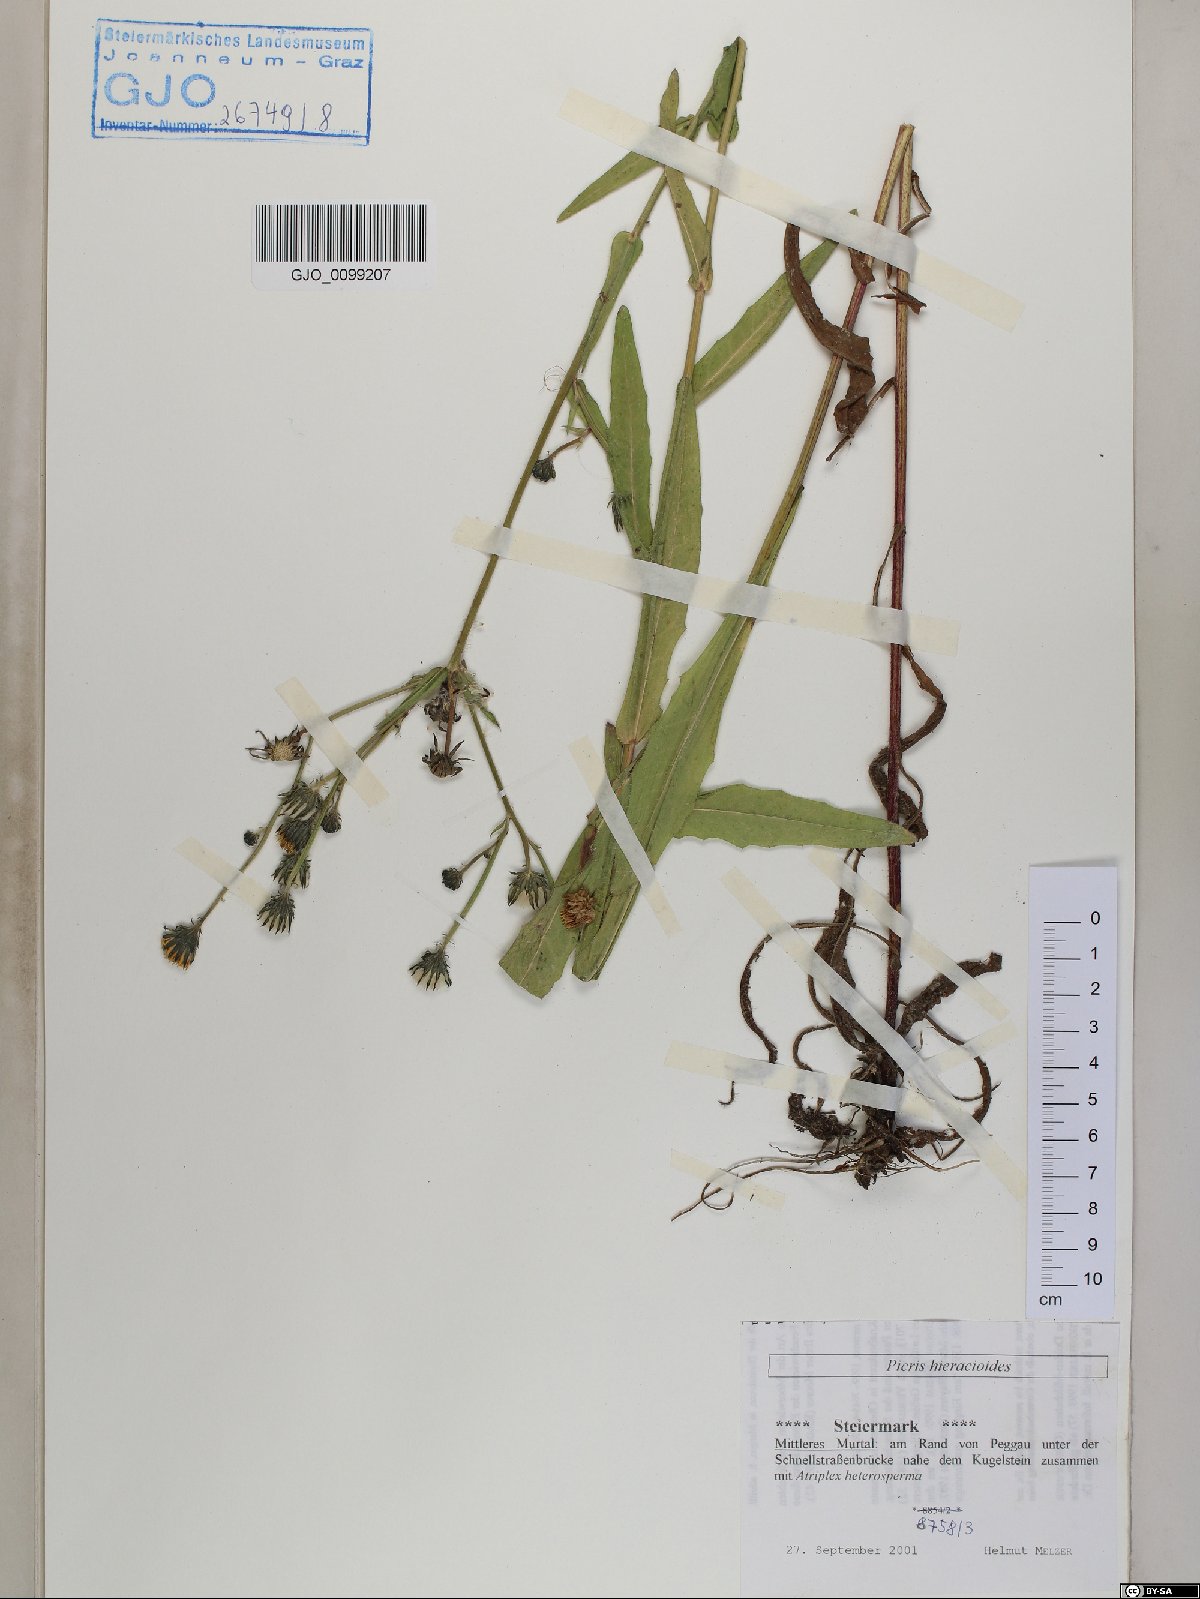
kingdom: Plantae
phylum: Tracheophyta
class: Magnoliopsida
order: Asterales
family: Asteraceae
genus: Picris
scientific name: Picris hieracioides
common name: Hawkweed oxtongue
